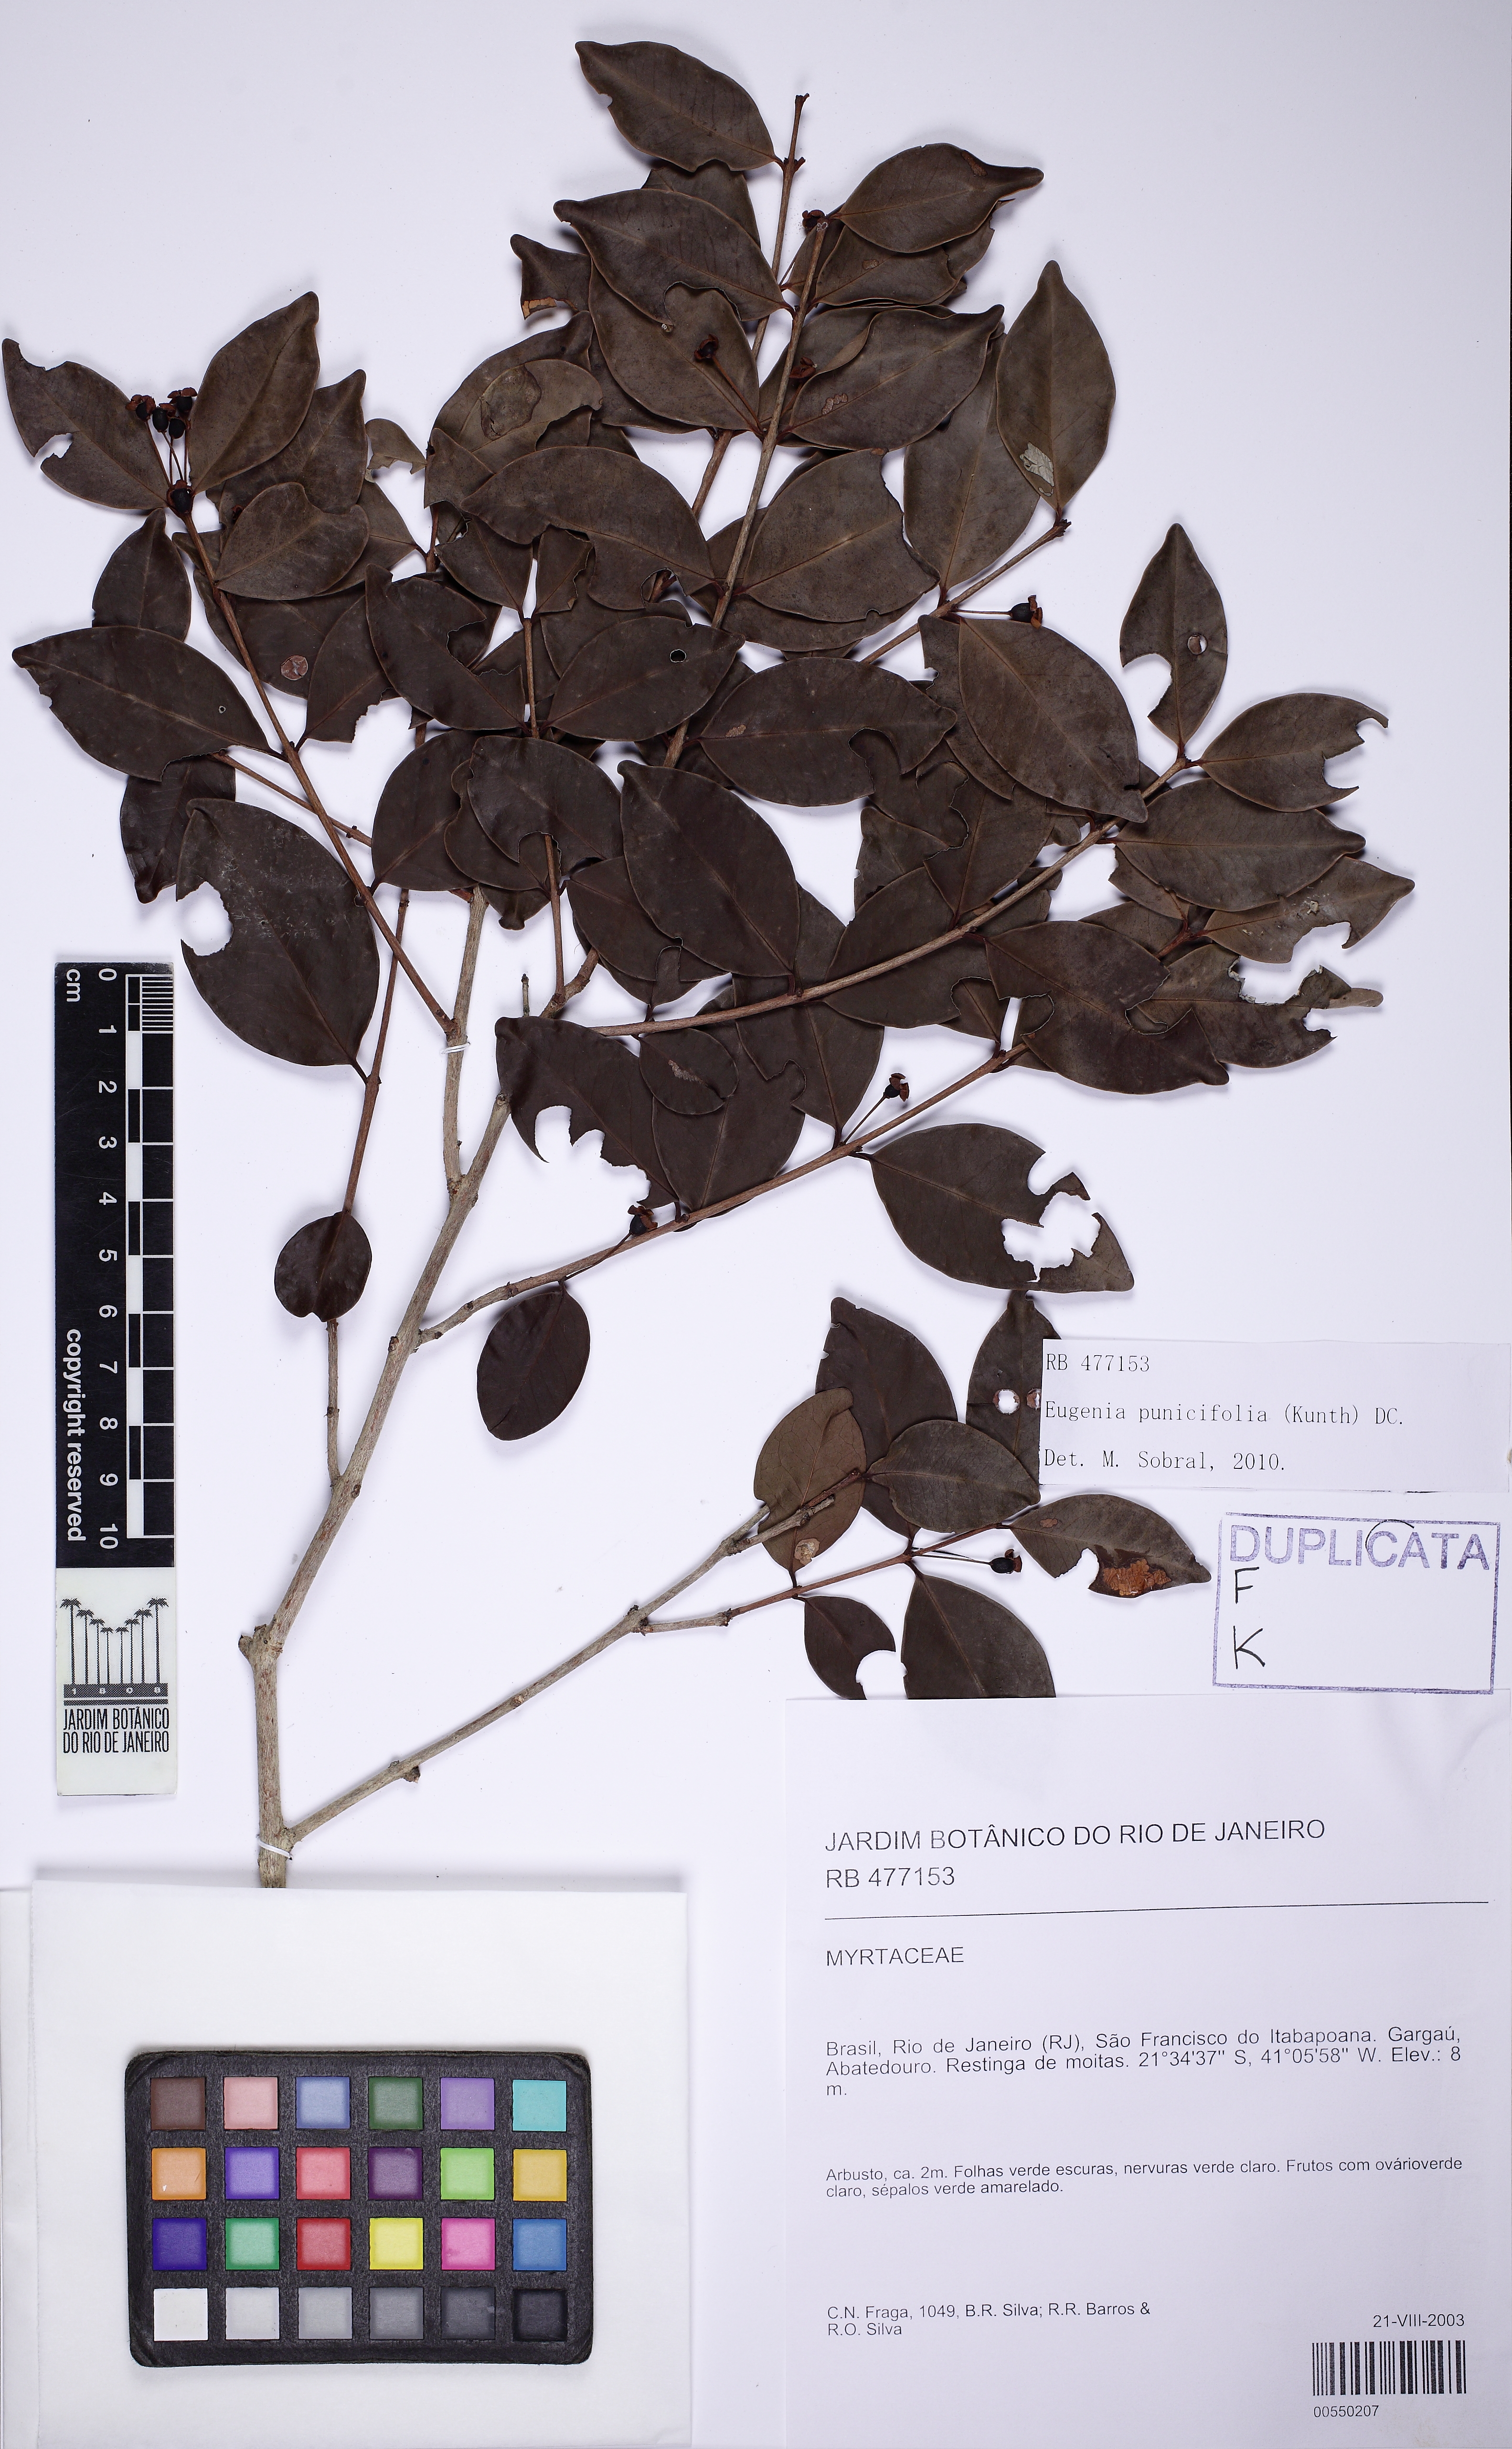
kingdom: Plantae
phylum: Tracheophyta
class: Magnoliopsida
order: Myrtales
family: Myrtaceae
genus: Eugenia
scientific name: Eugenia punicifolia
